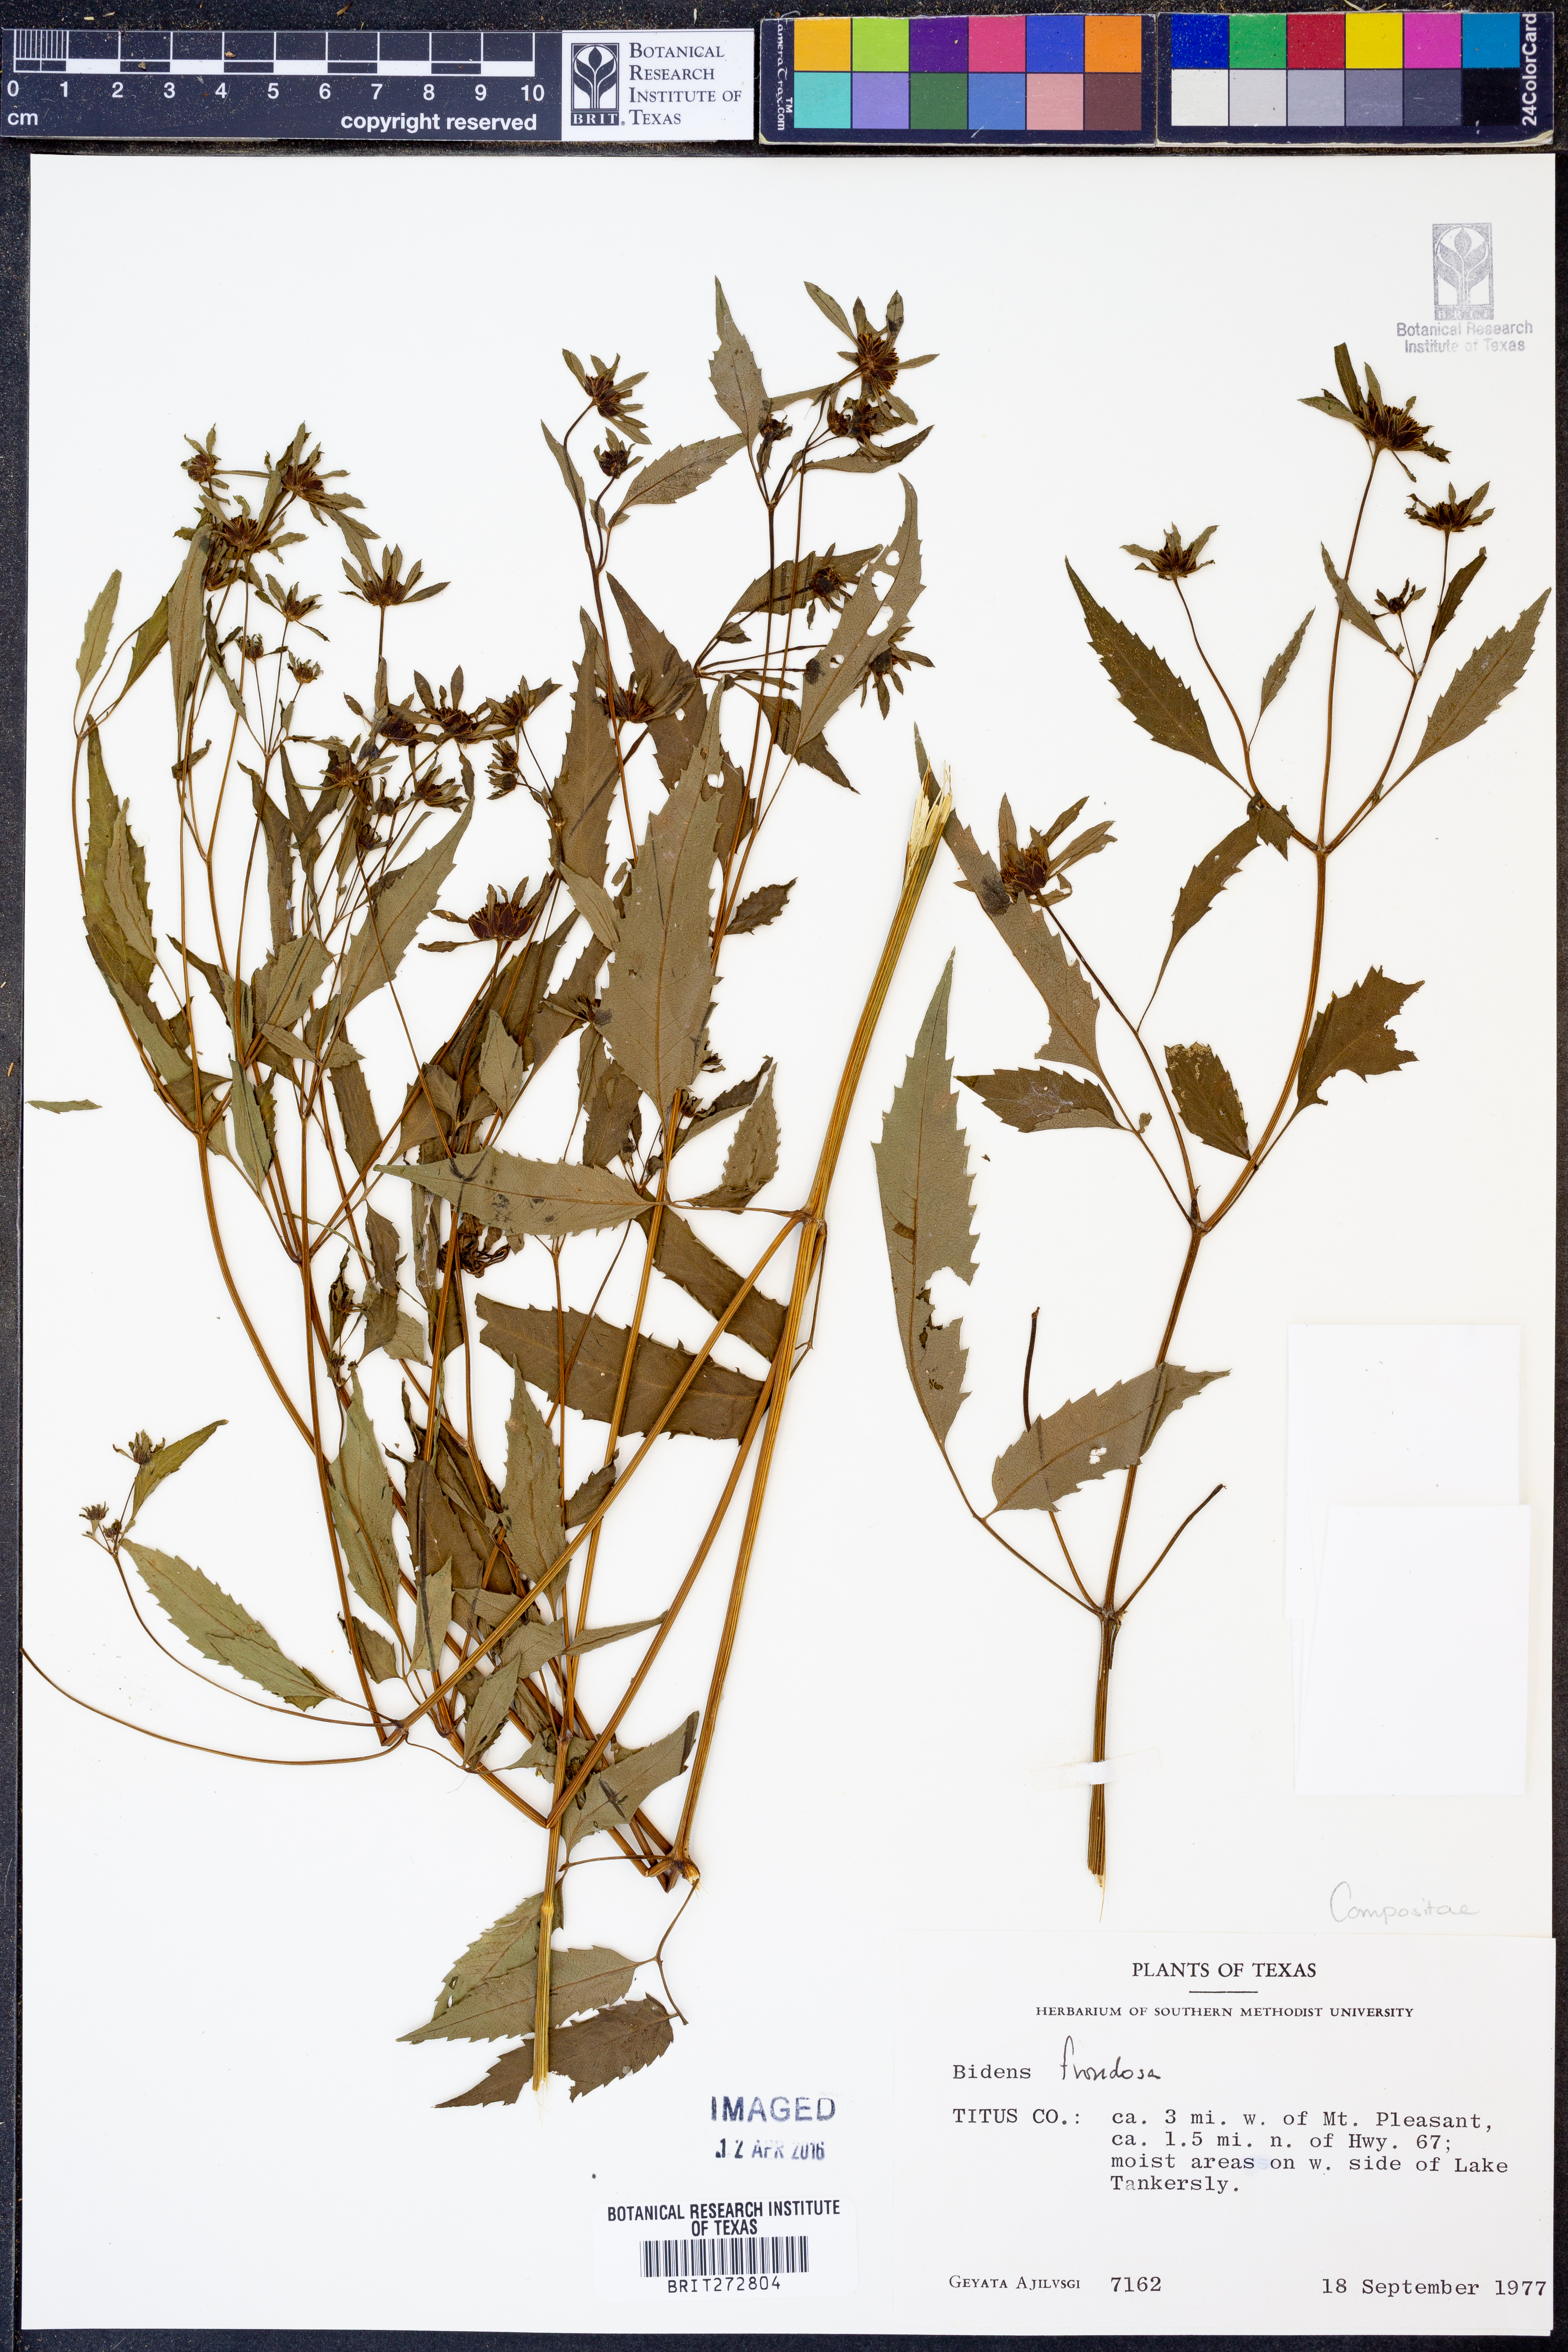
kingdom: Plantae
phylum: Tracheophyta
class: Magnoliopsida
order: Asterales
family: Asteraceae
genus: Bidens
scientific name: Bidens frondosa
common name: Beggarticks
